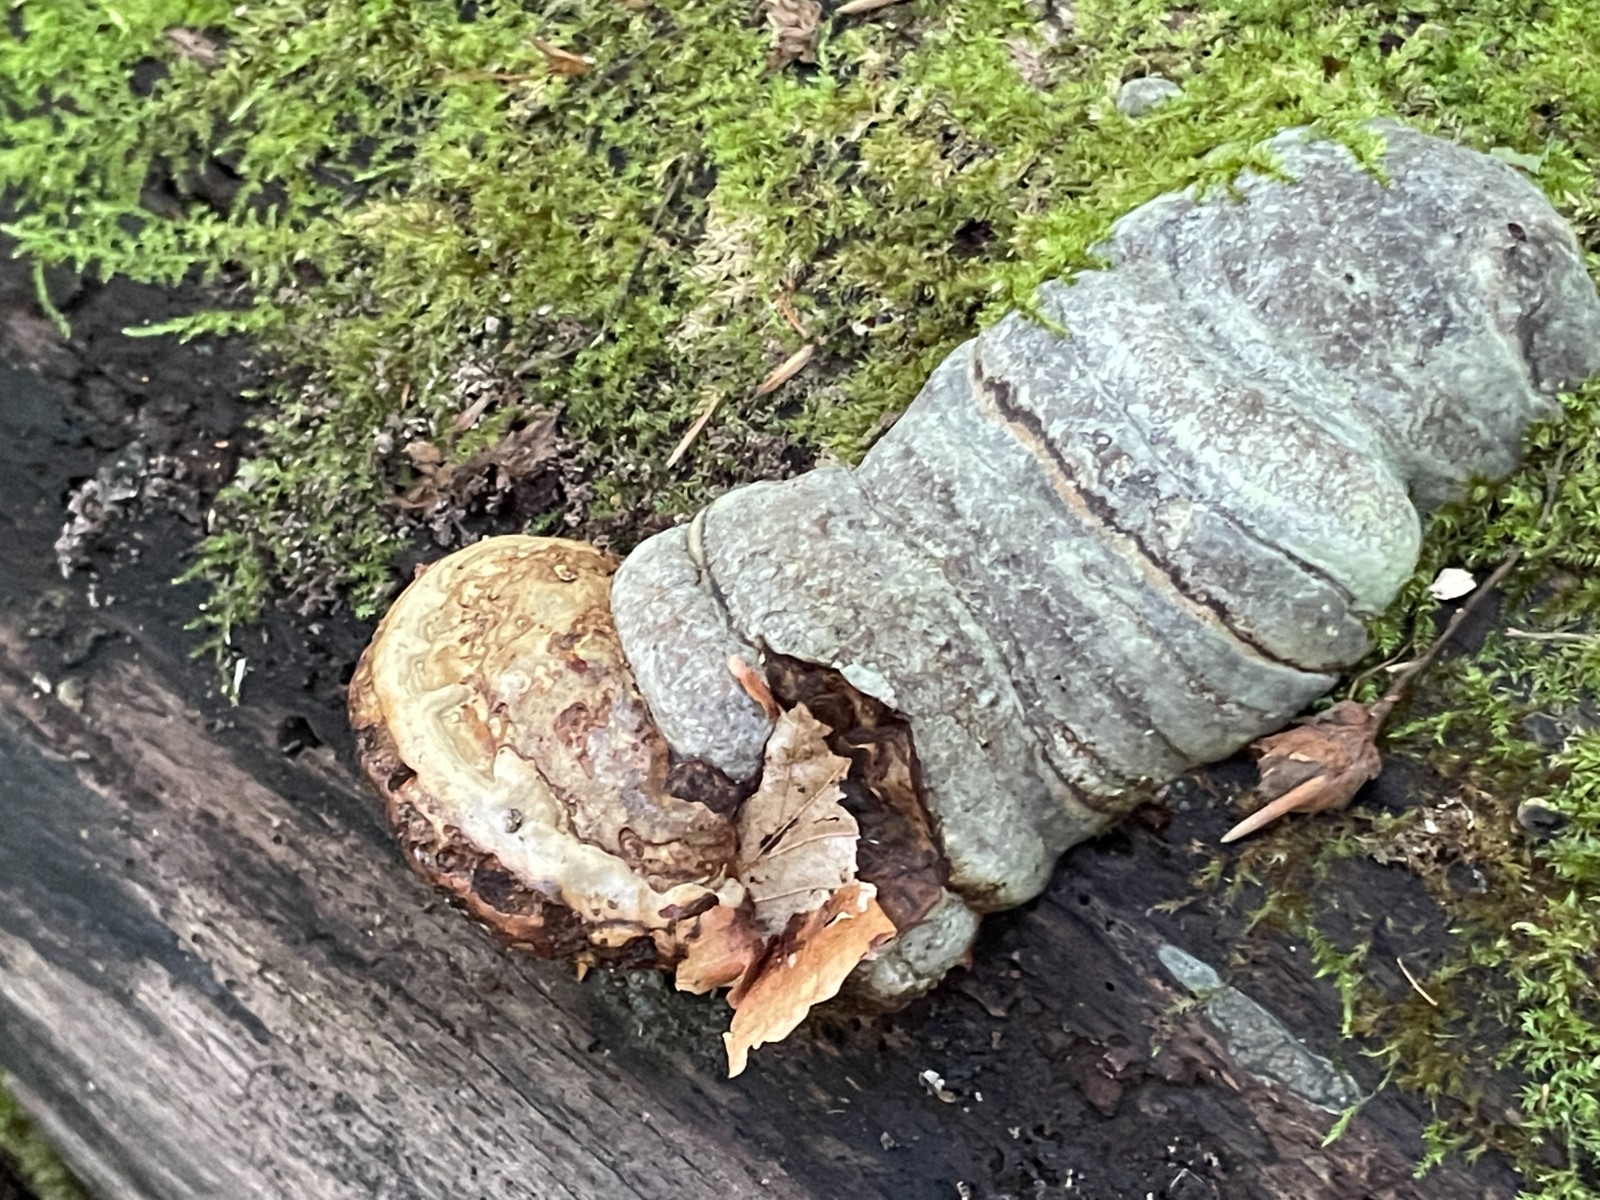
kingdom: Fungi
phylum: Basidiomycota
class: Agaricomycetes
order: Polyporales
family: Polyporaceae
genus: Fomes
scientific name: Fomes fomentarius
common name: tøndersvamp
